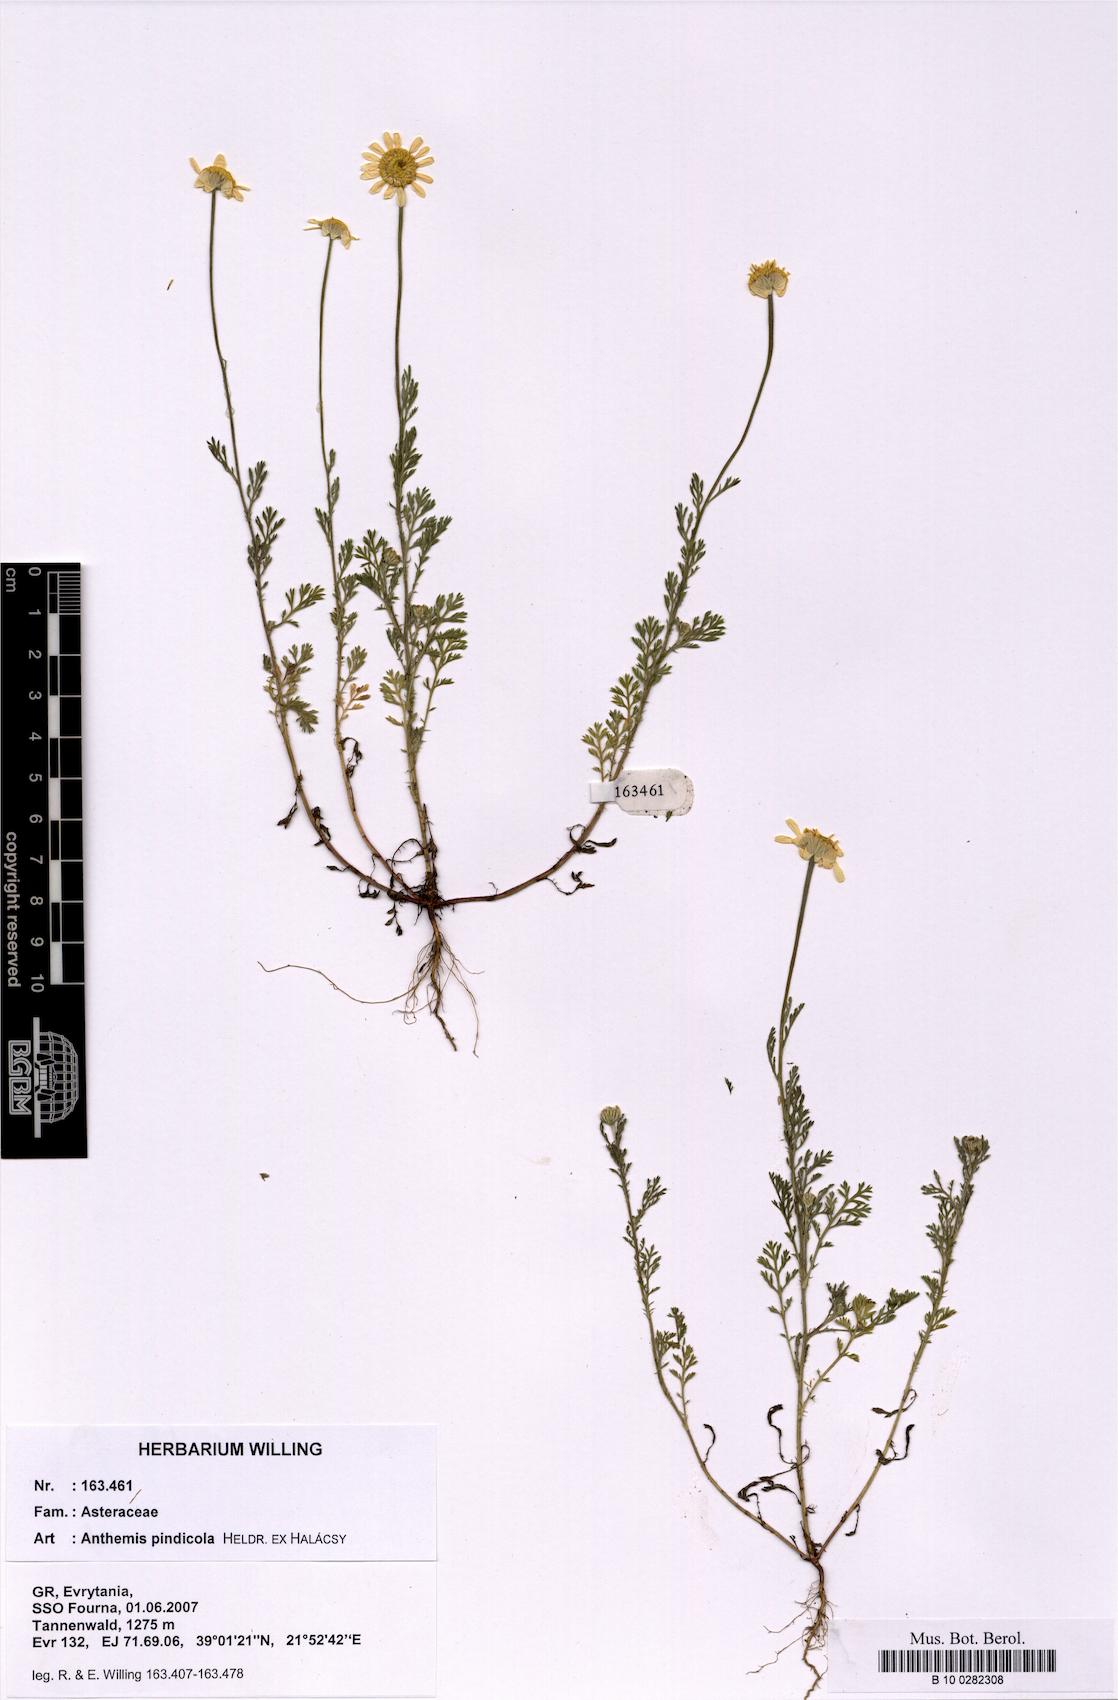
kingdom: Plantae
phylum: Tracheophyta
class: Magnoliopsida
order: Asterales
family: Asteraceae
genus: Anthemis
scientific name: Anthemis pindicola
